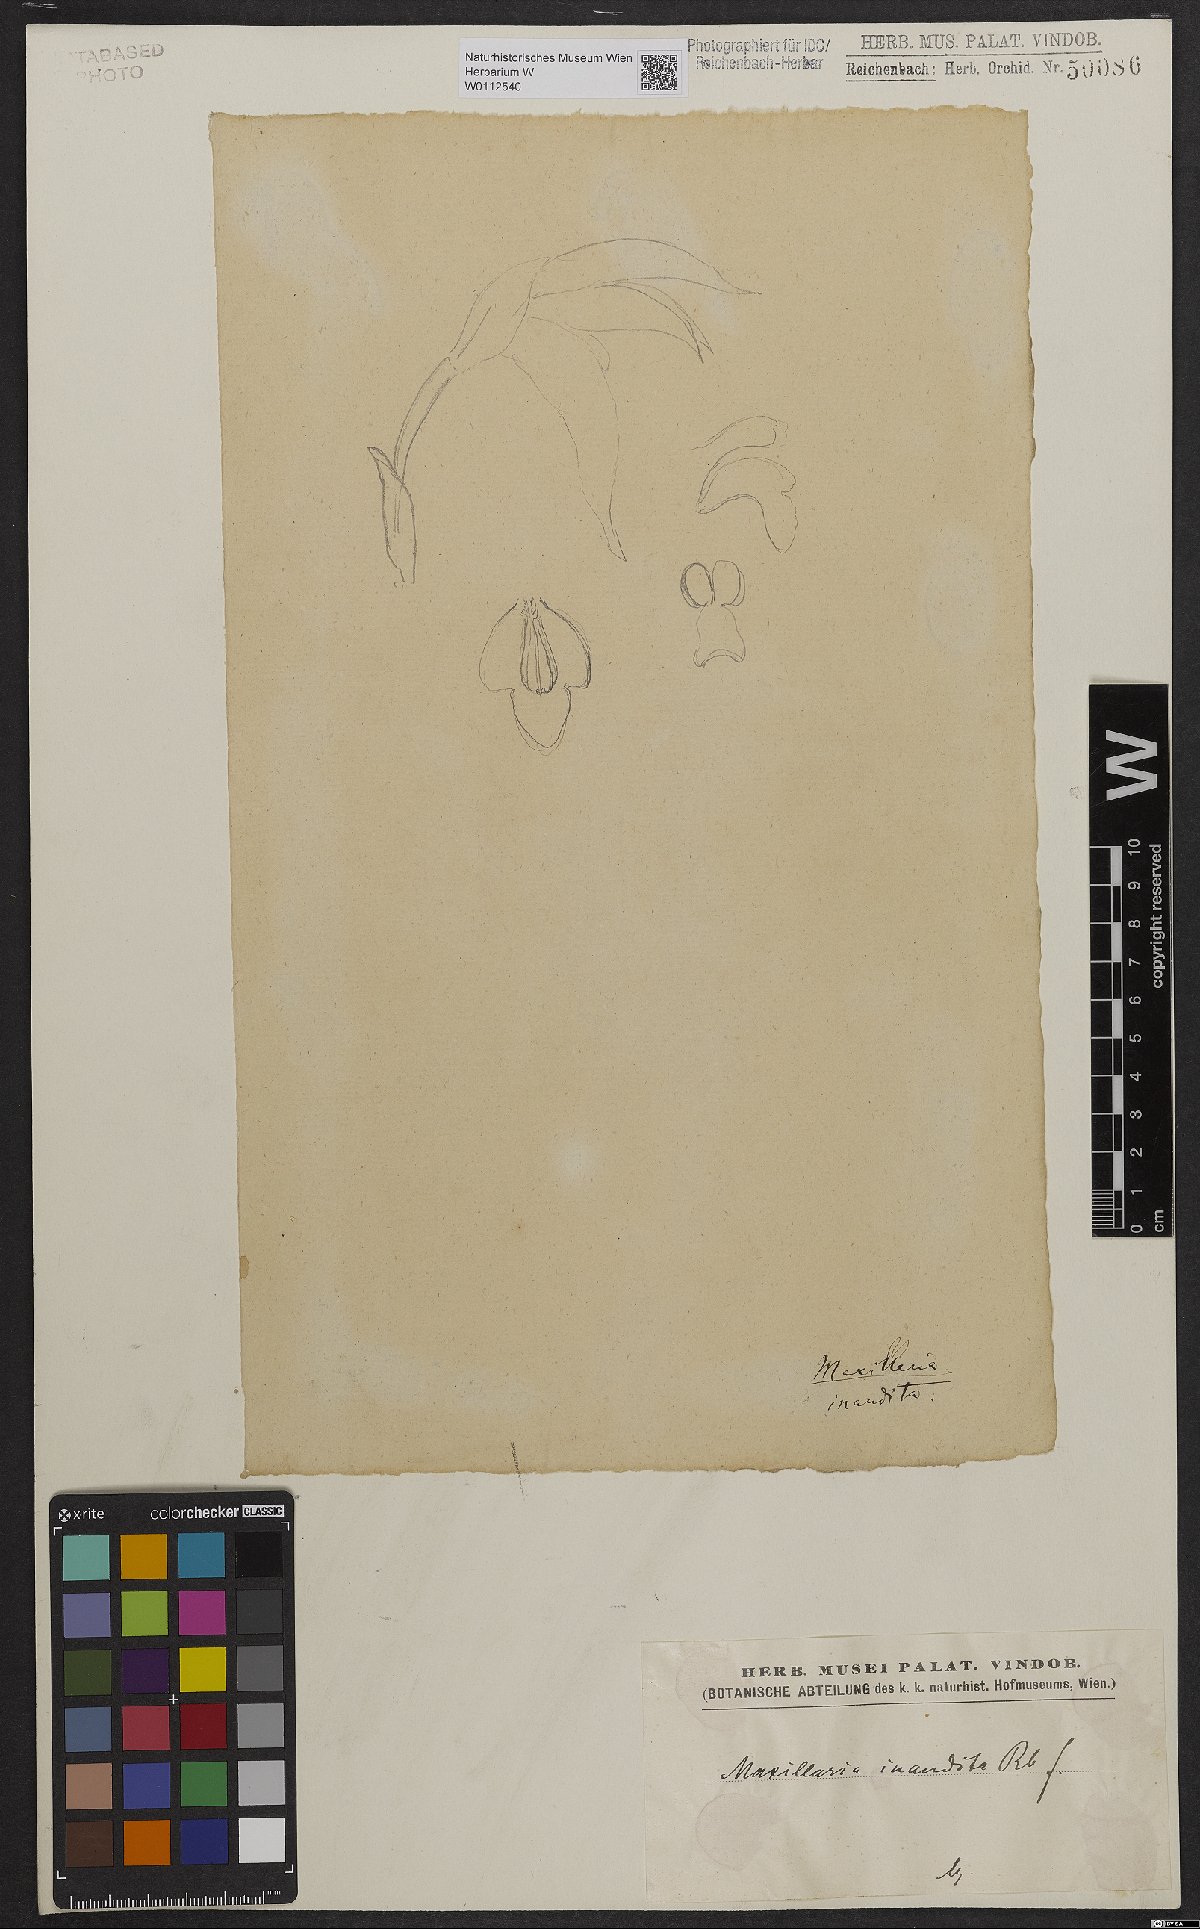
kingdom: Plantae
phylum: Tracheophyta
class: Liliopsida
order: Asparagales
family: Orchidaceae
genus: Maxillaria
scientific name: Maxillaria inaudita
